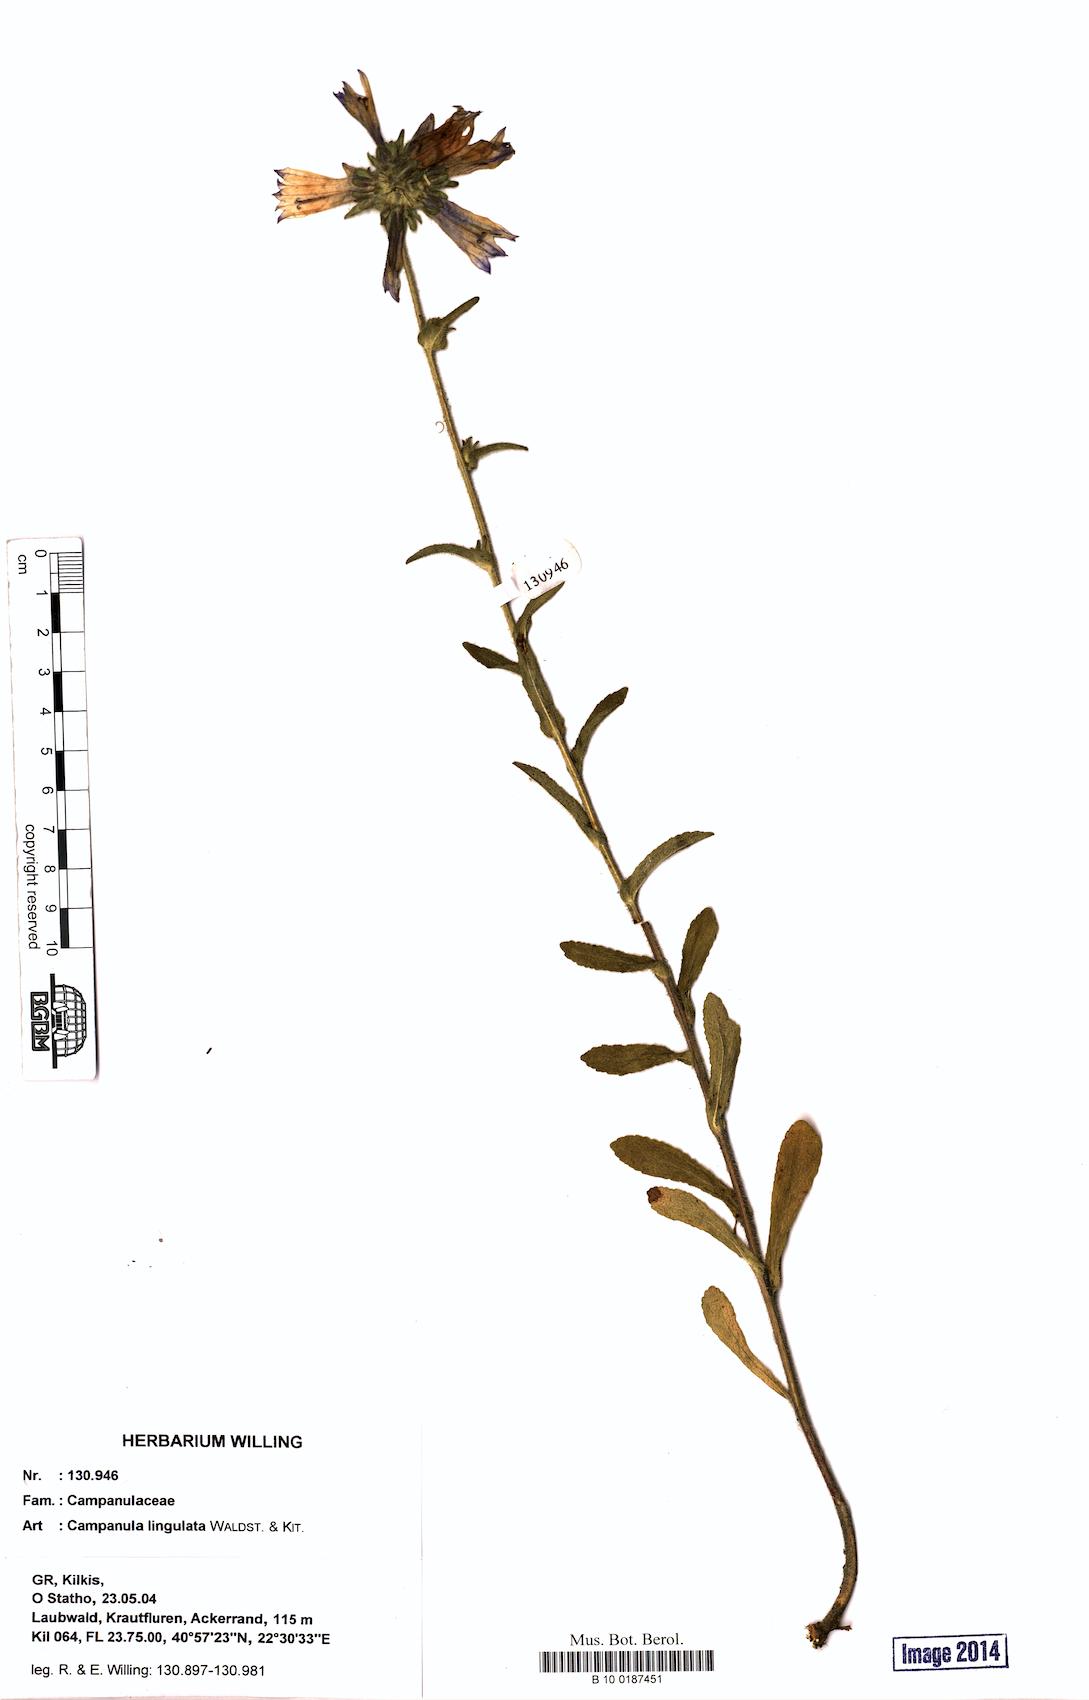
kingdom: Plantae
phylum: Tracheophyta
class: Magnoliopsida
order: Asterales
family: Campanulaceae
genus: Campanula
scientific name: Campanula lingulata
